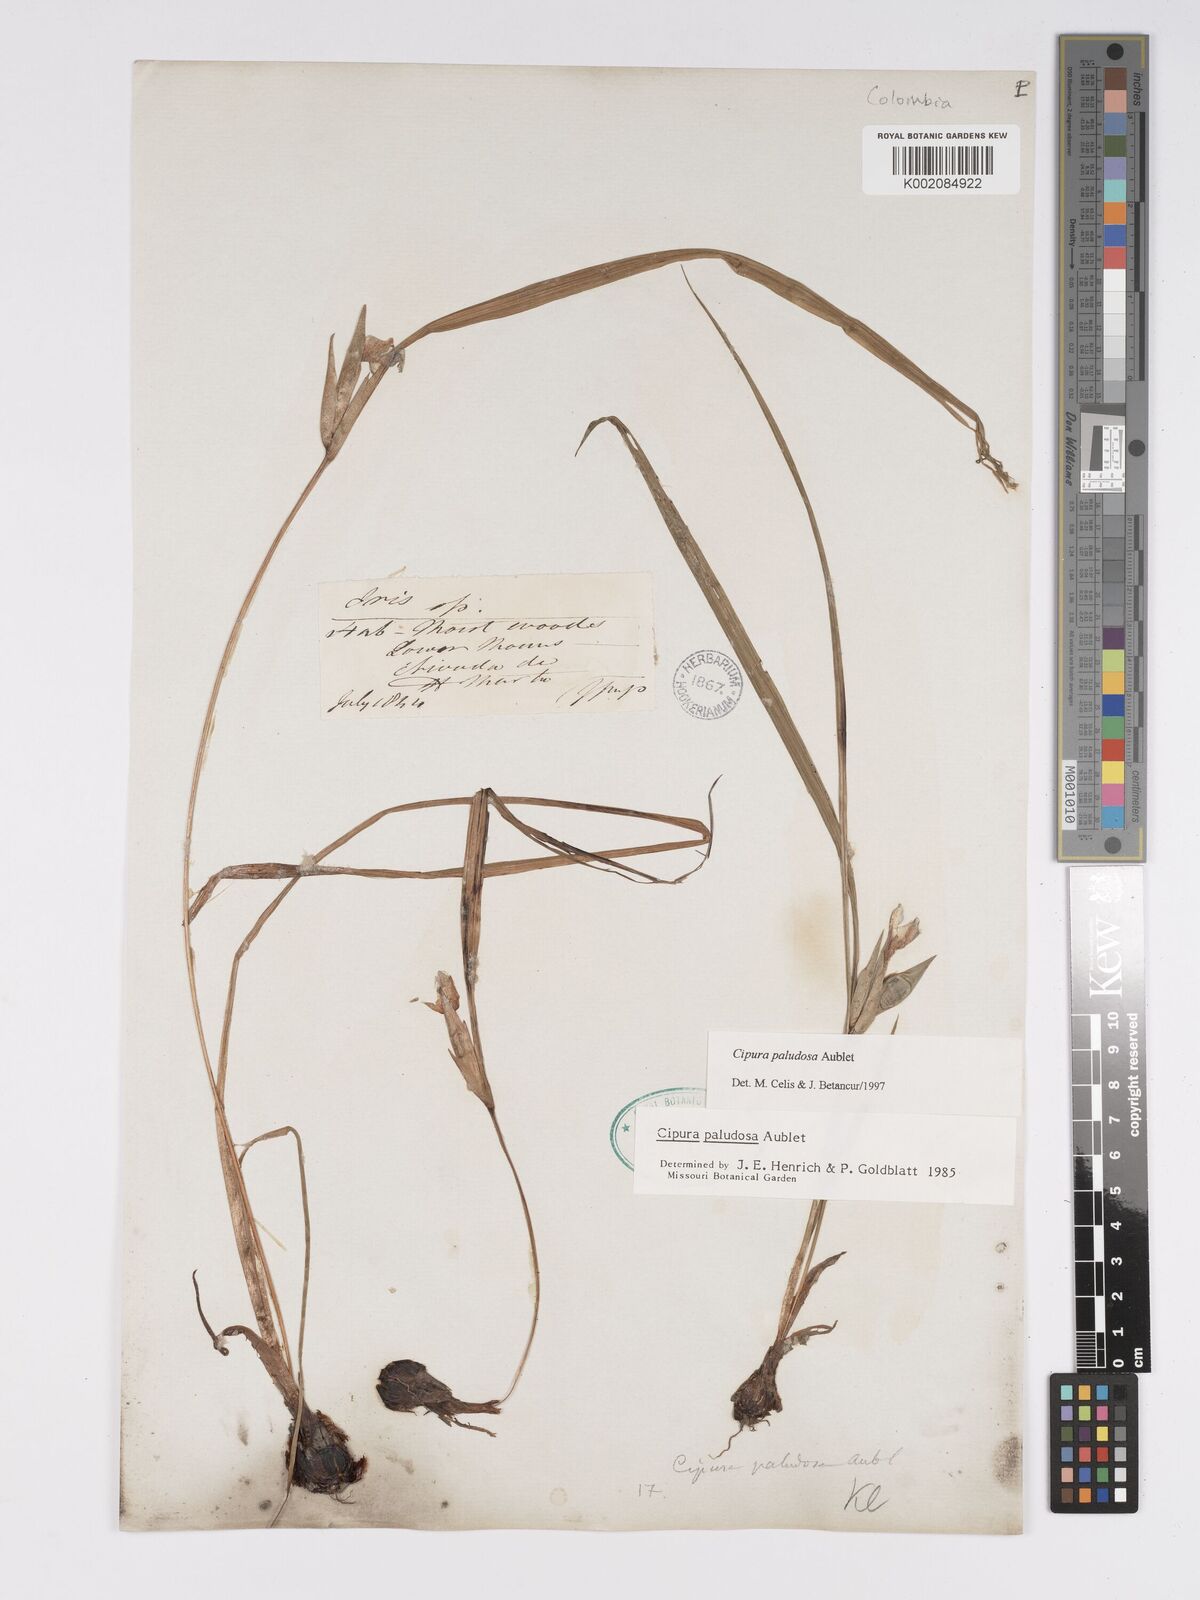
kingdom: Plantae
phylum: Tracheophyta
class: Liliopsida
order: Asparagales
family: Iridaceae
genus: Cipura
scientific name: Cipura paludosa
